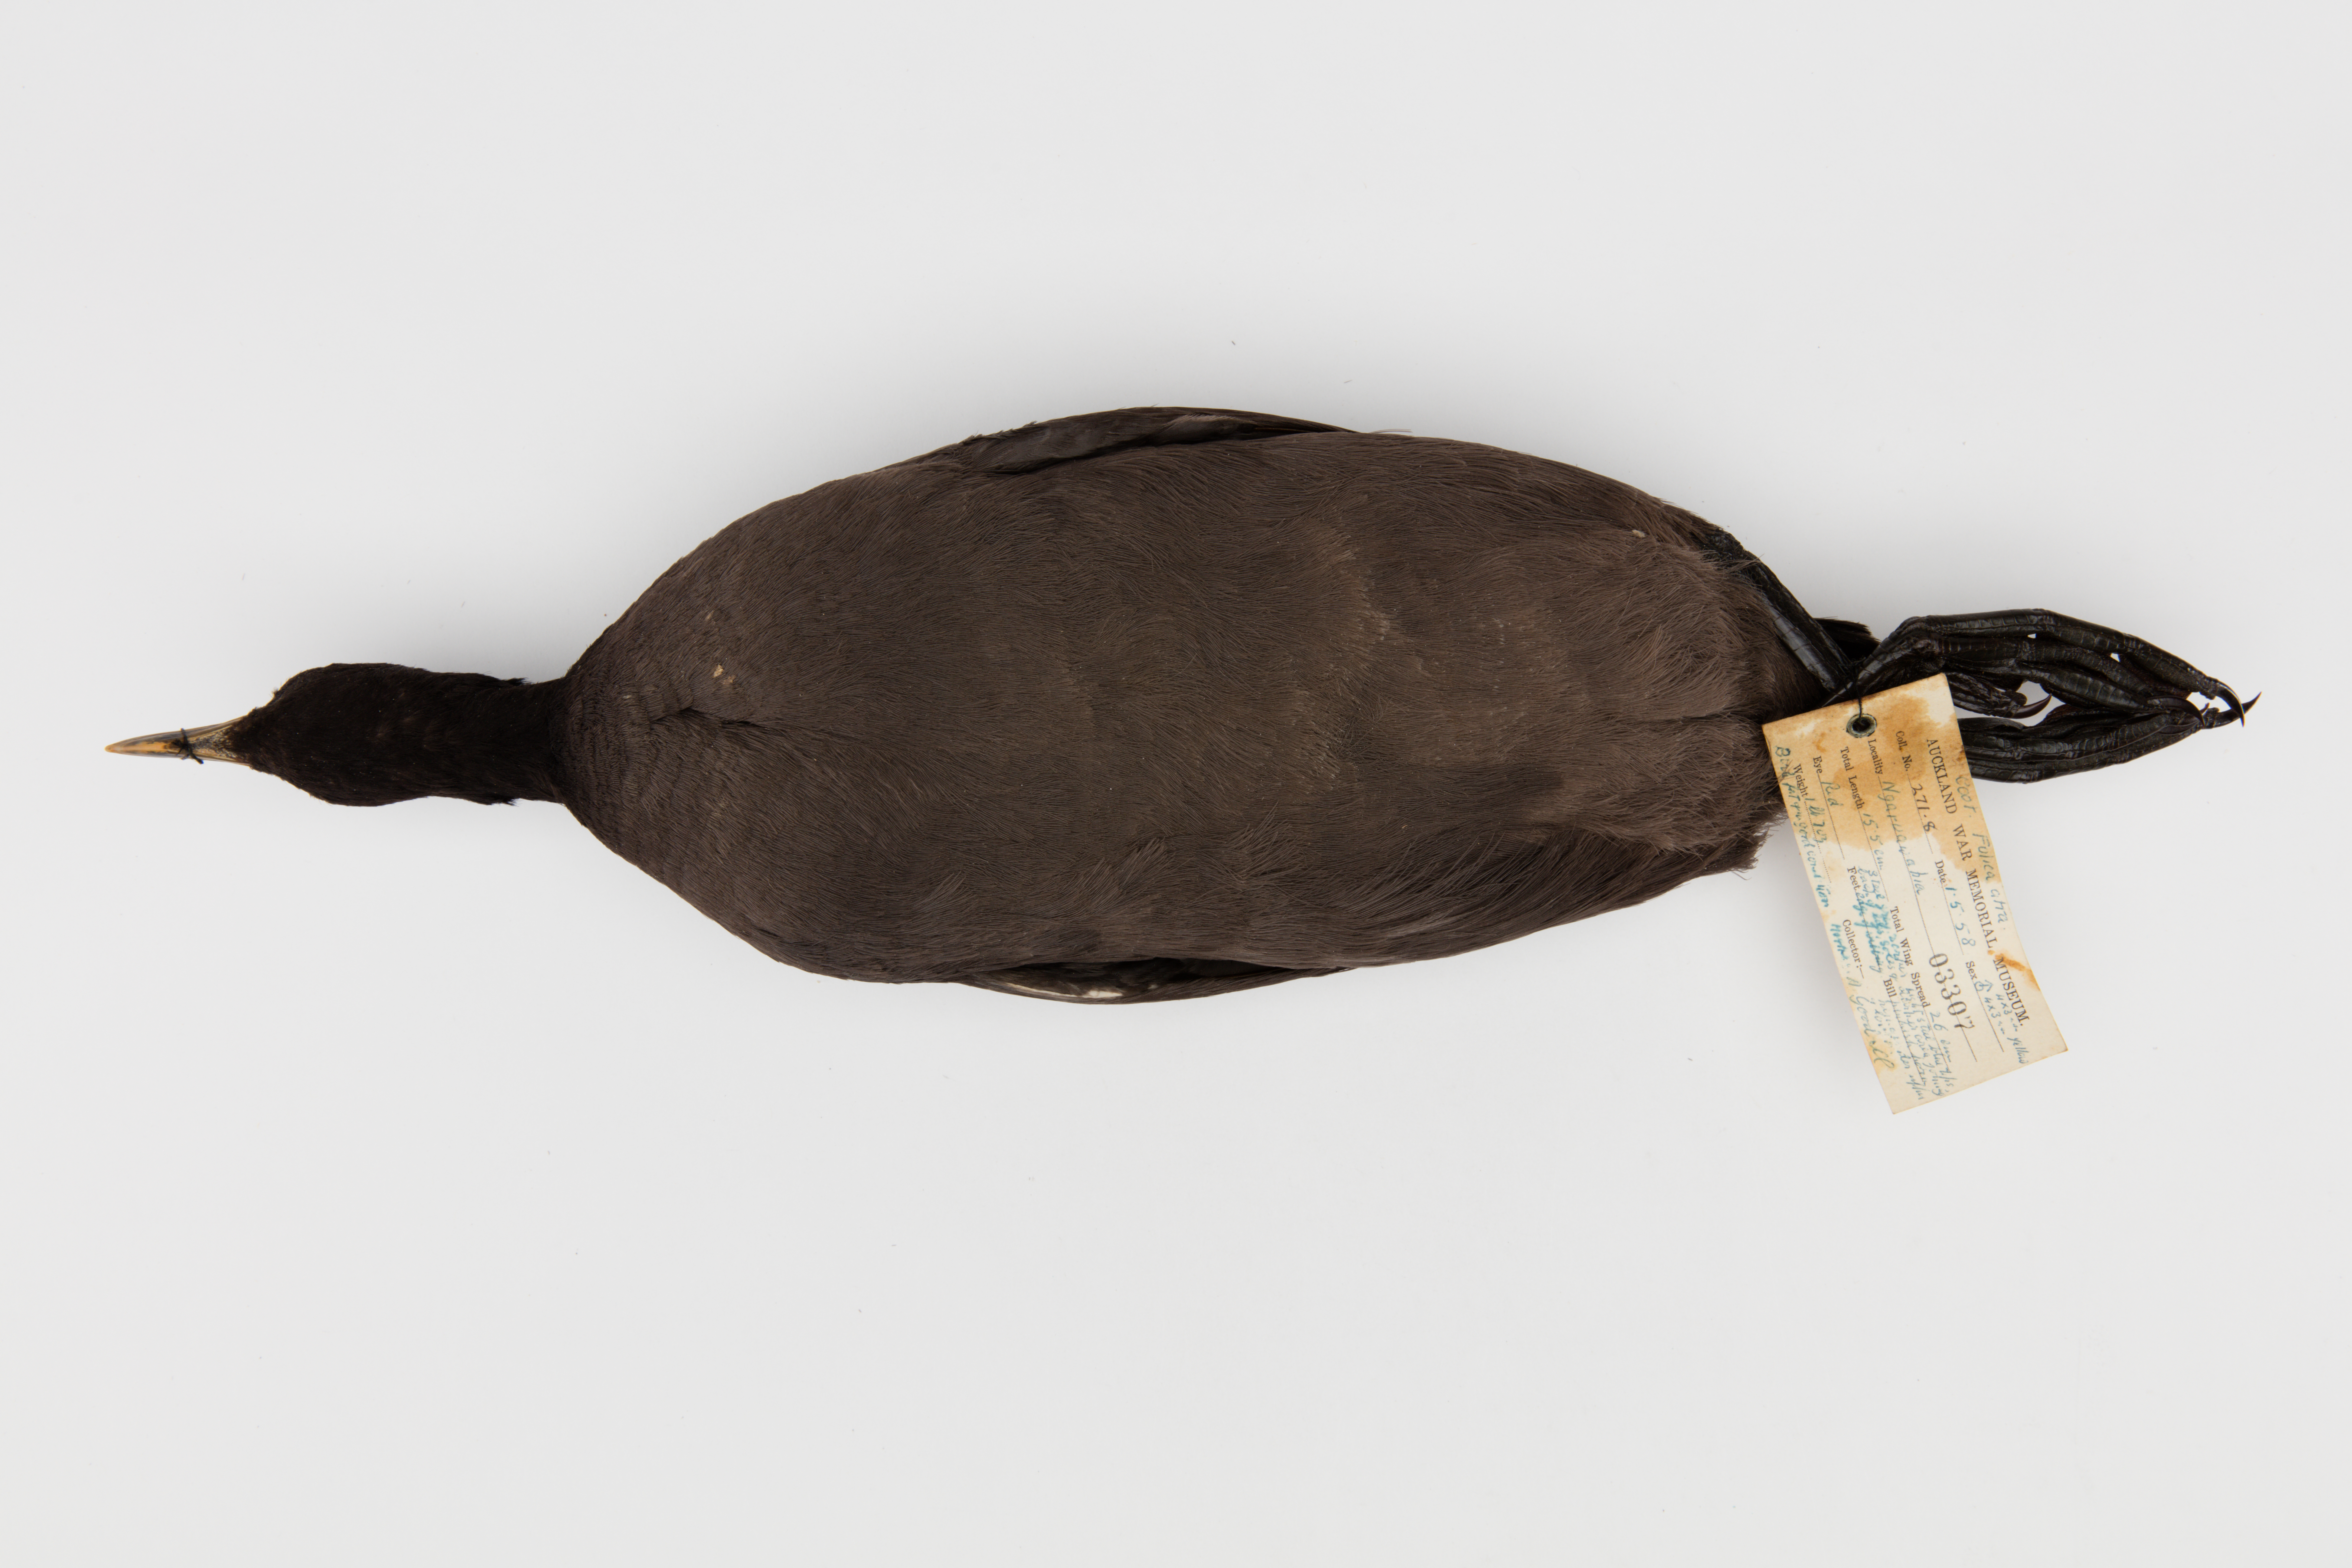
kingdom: Animalia
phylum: Chordata
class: Aves
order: Gruiformes
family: Rallidae
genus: Fulica
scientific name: Fulica atra
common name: Eurasian coot
